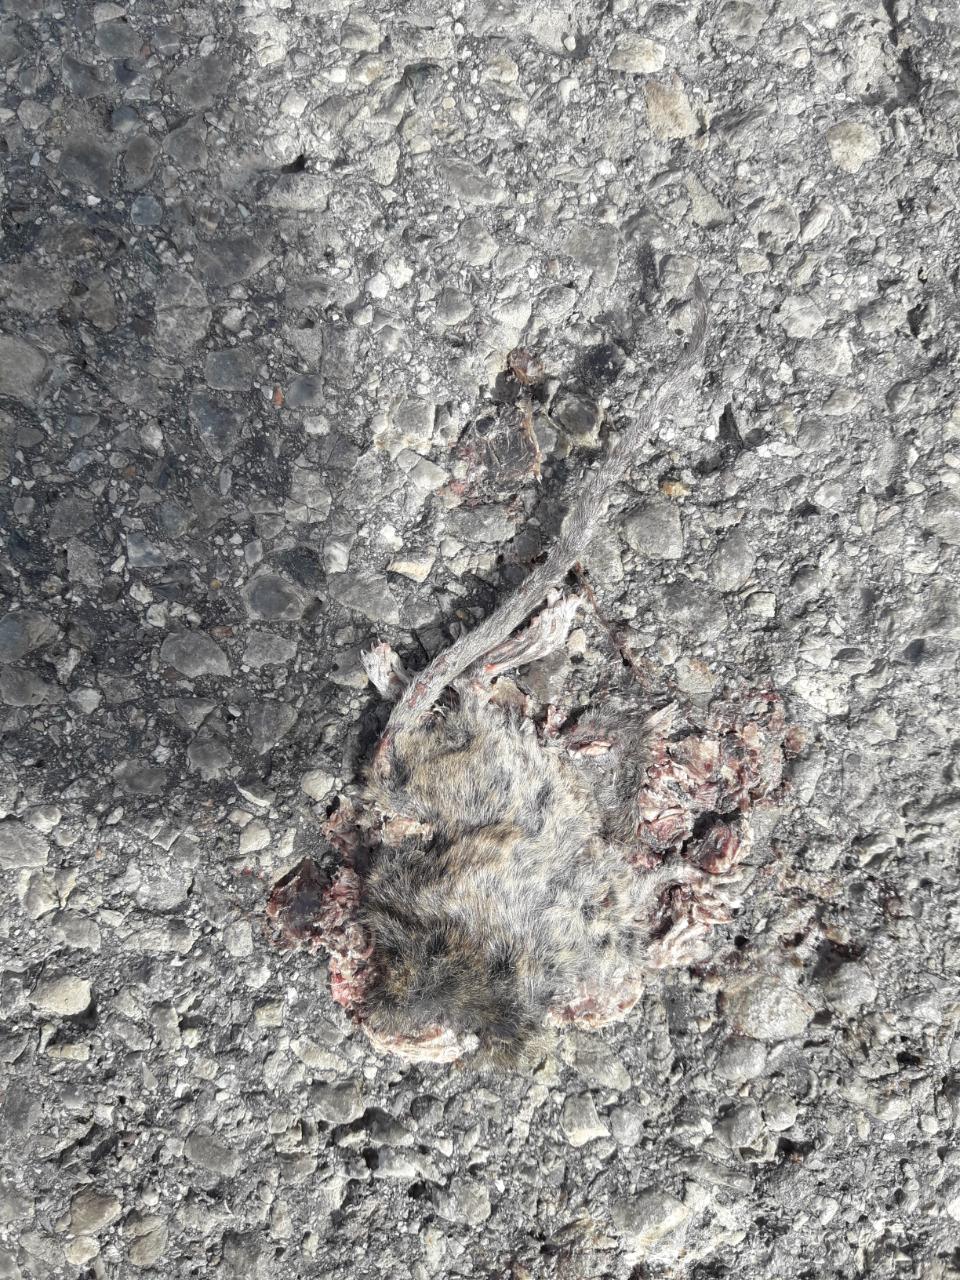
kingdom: Animalia
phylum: Chordata
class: Mammalia
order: Rodentia
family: Muridae
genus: Apodemus
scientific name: Apodemus
